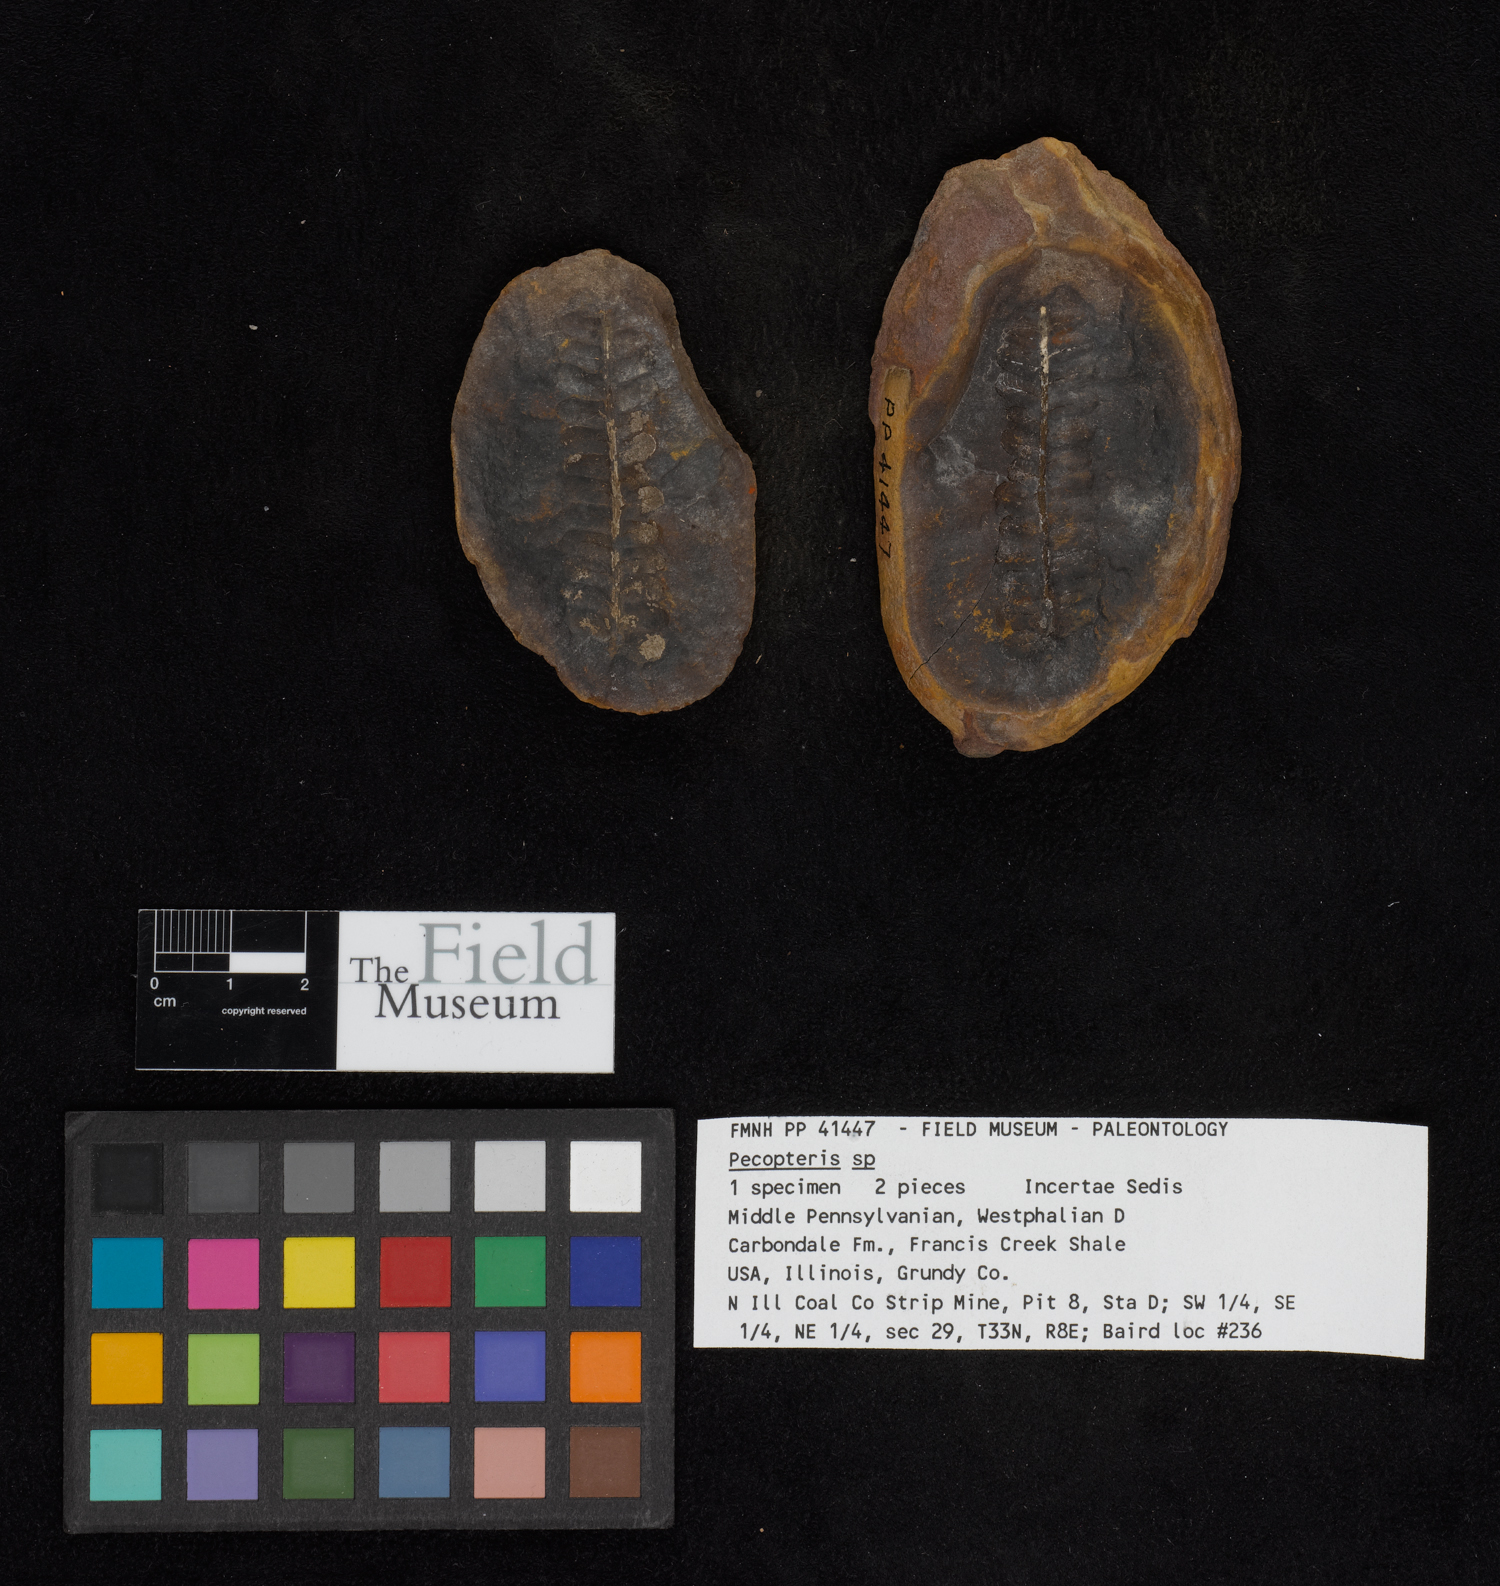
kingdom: Plantae
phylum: Tracheophyta
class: Polypodiopsida
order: Marattiales
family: Asterothecaceae
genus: Pecopteris
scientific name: Pecopteris
